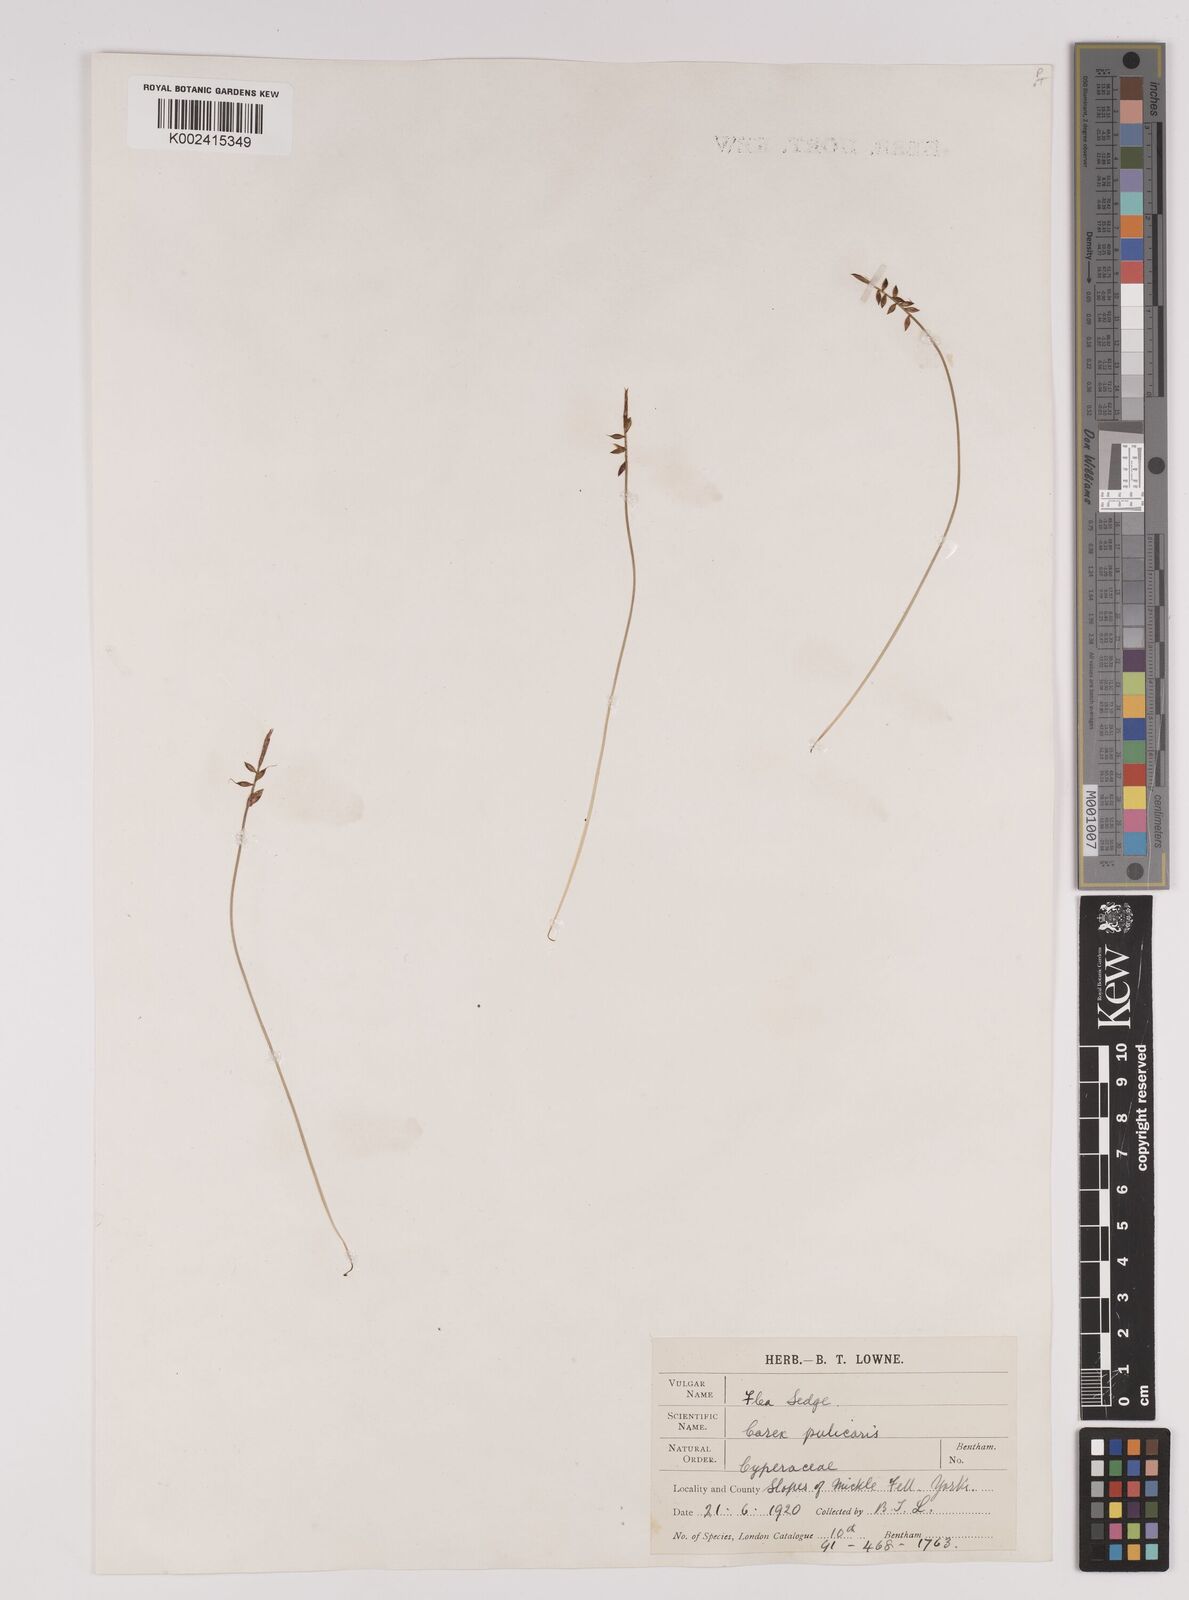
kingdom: Plantae
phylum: Tracheophyta
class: Liliopsida
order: Poales
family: Cyperaceae
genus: Carex
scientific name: Carex pulicaris
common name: Flea sedge
